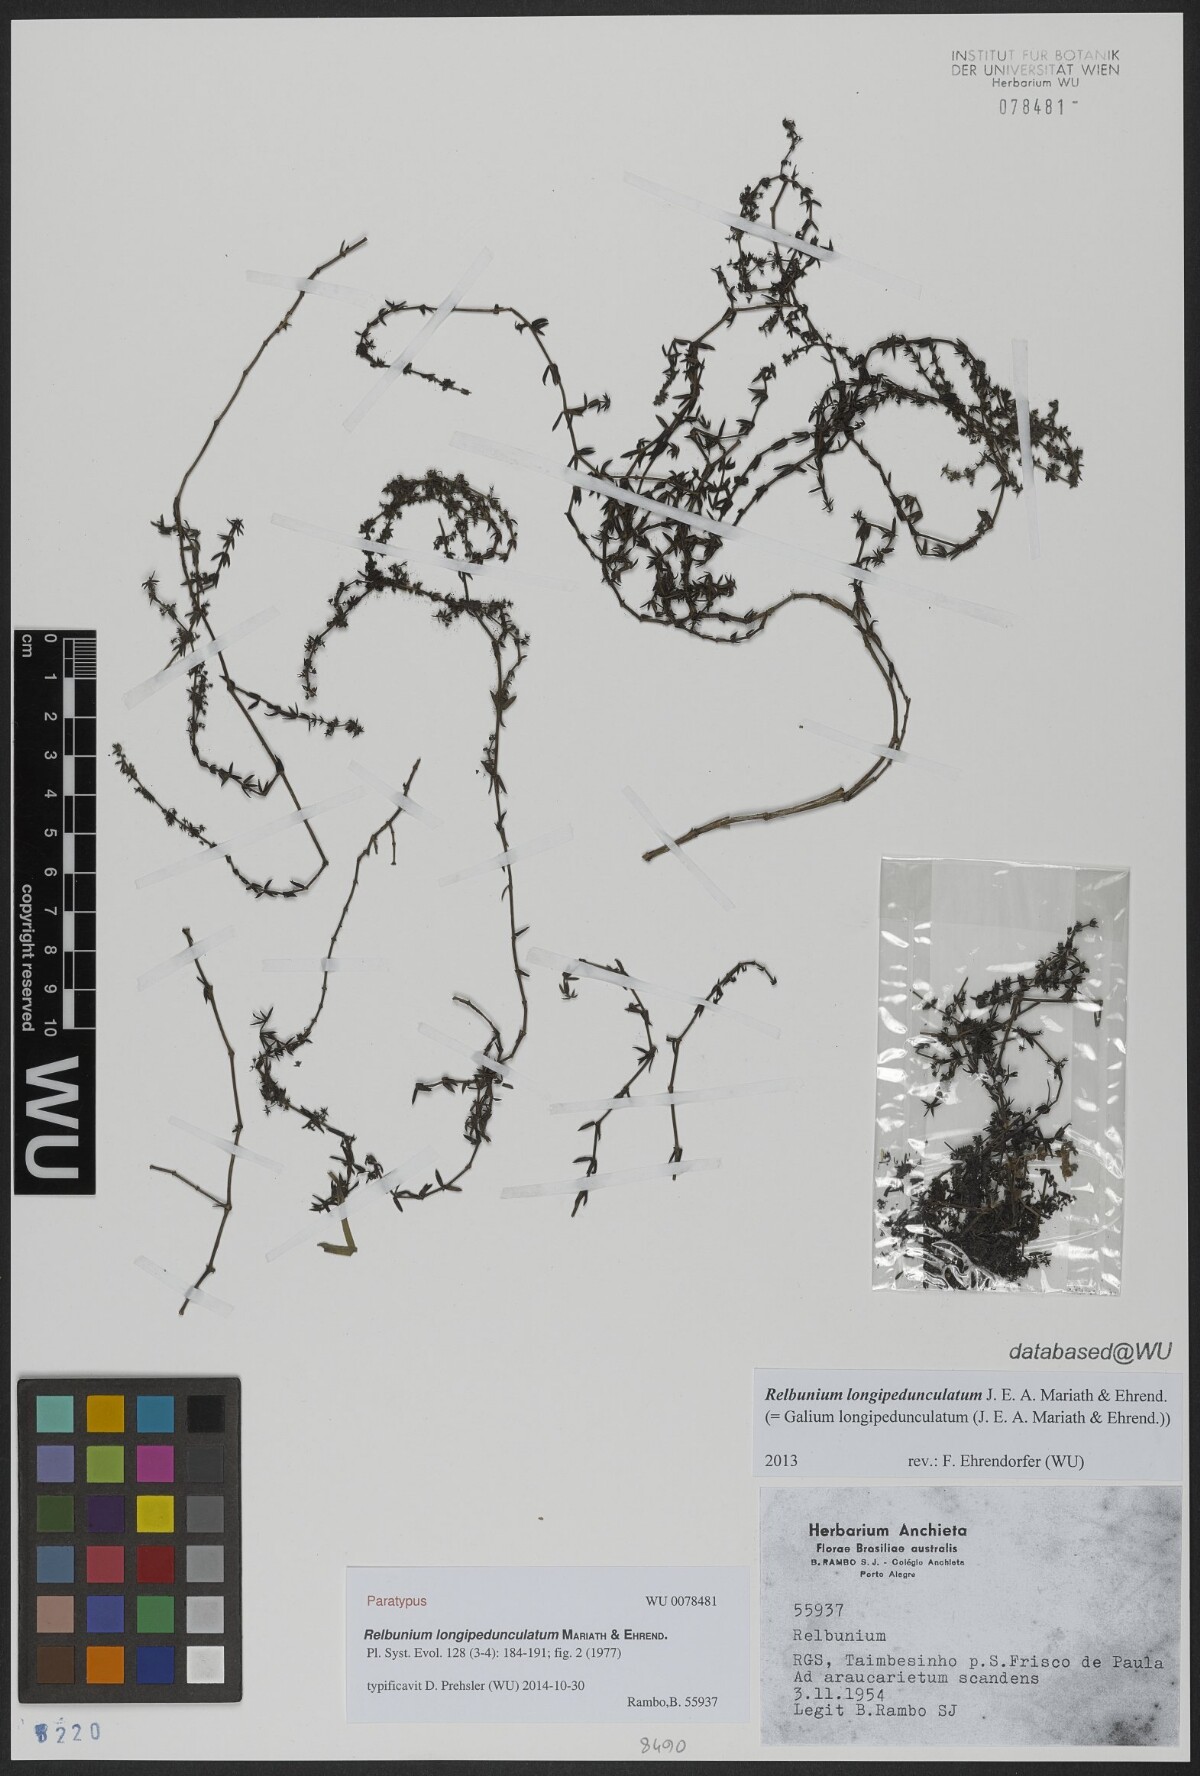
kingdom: Plantae
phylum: Tracheophyta
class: Magnoliopsida
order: Gentianales
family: Rubiaceae
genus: Galium
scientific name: Galium longipedunculatum
